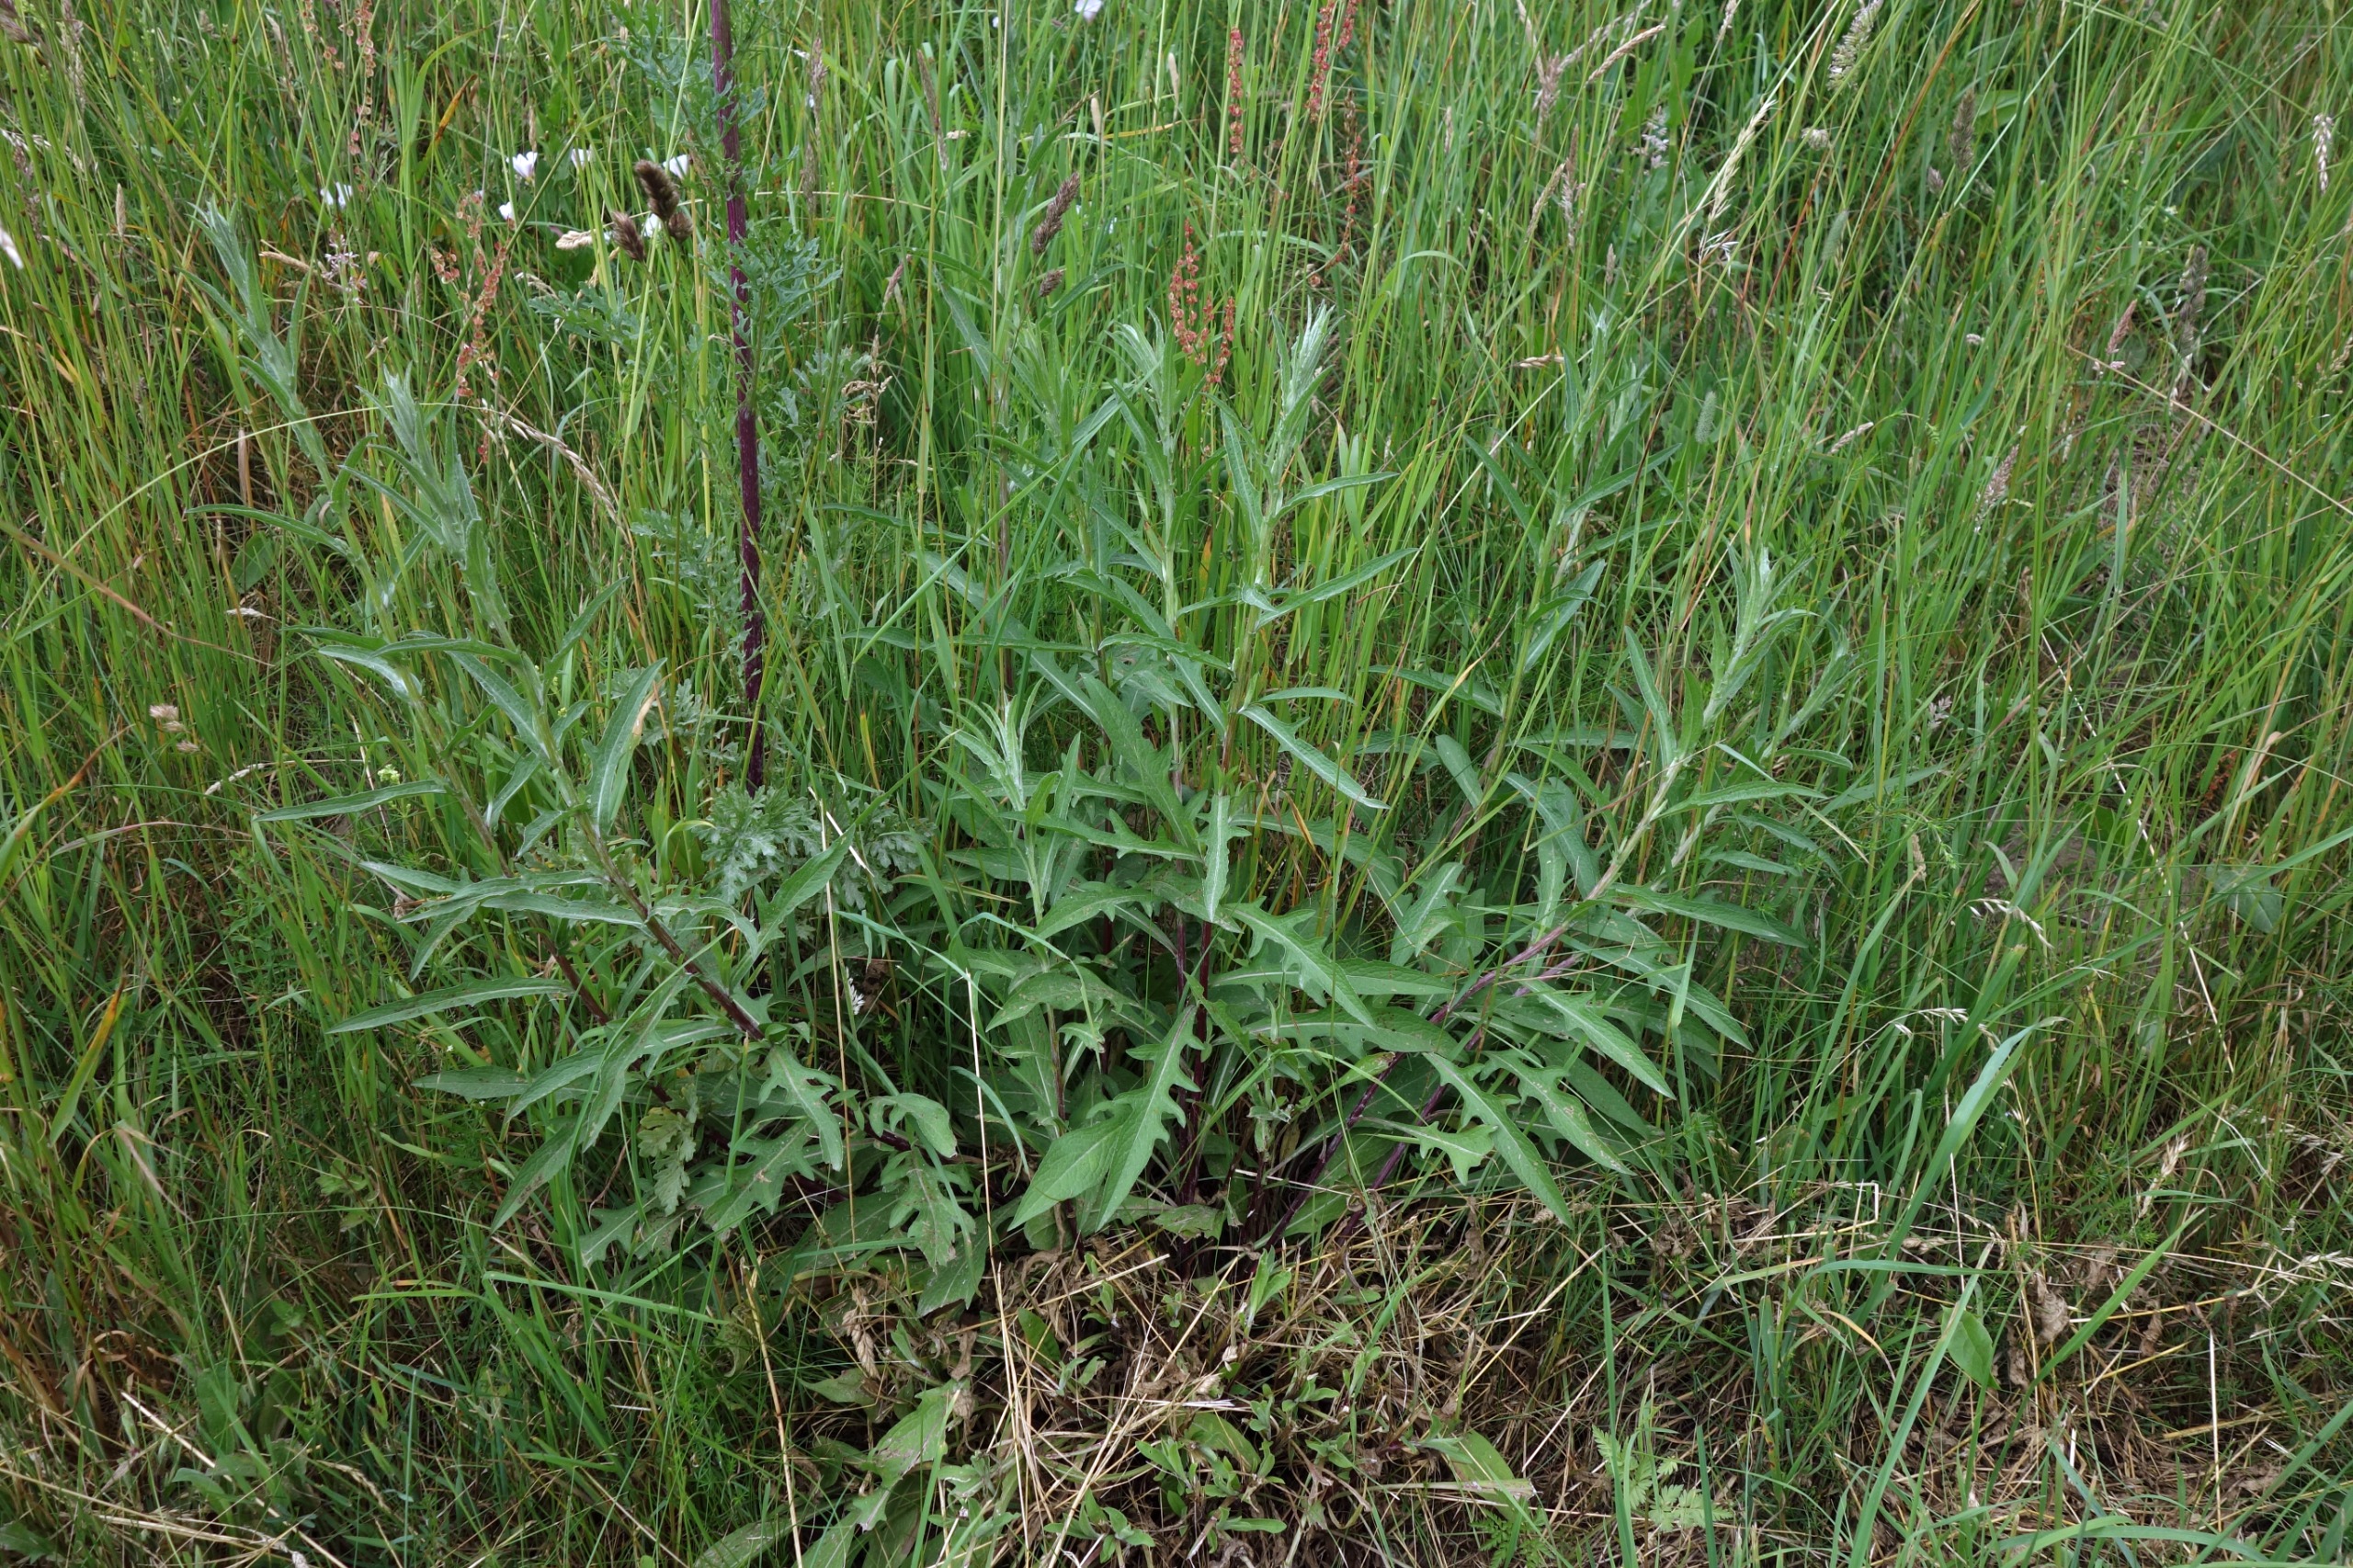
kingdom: Plantae
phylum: Tracheophyta
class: Magnoliopsida
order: Asterales
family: Asteraceae
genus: Centaurea
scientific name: Centaurea jacea
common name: Almindelig knopurt
